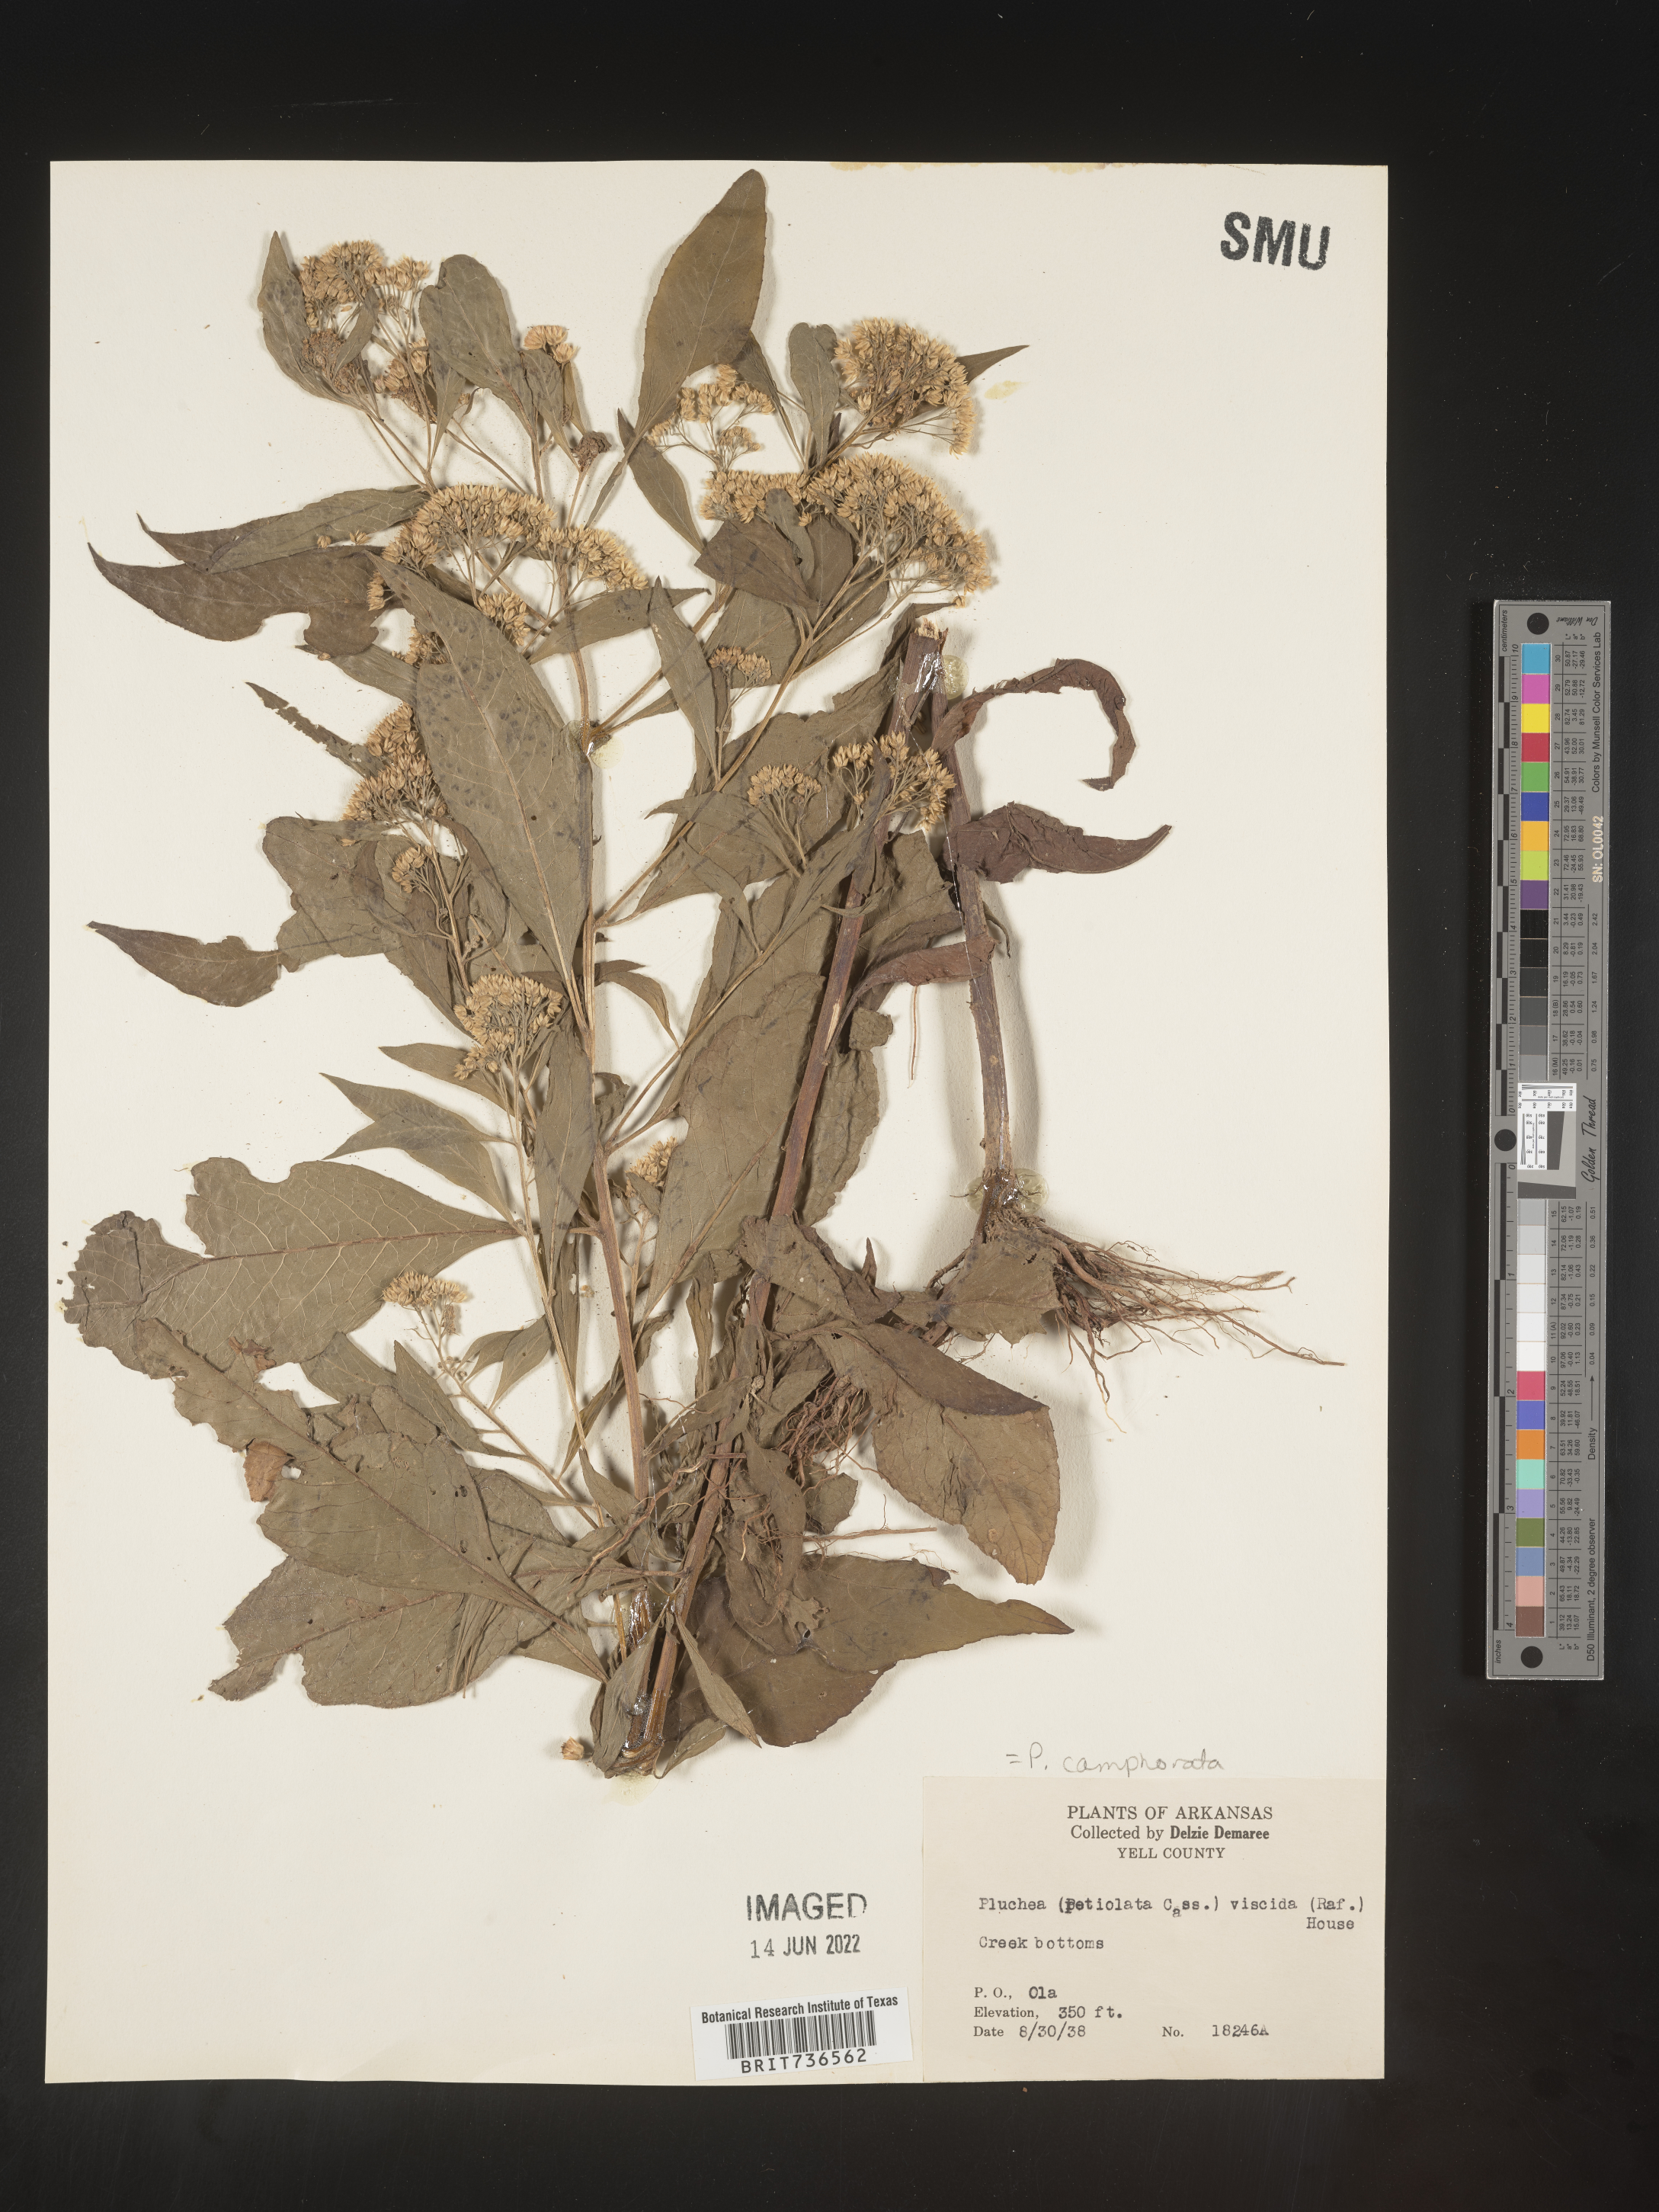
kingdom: Plantae
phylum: Tracheophyta
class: Magnoliopsida
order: Asterales
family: Asteraceae
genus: Pluchea
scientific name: Pluchea camphorata
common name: Camphor pluchea
